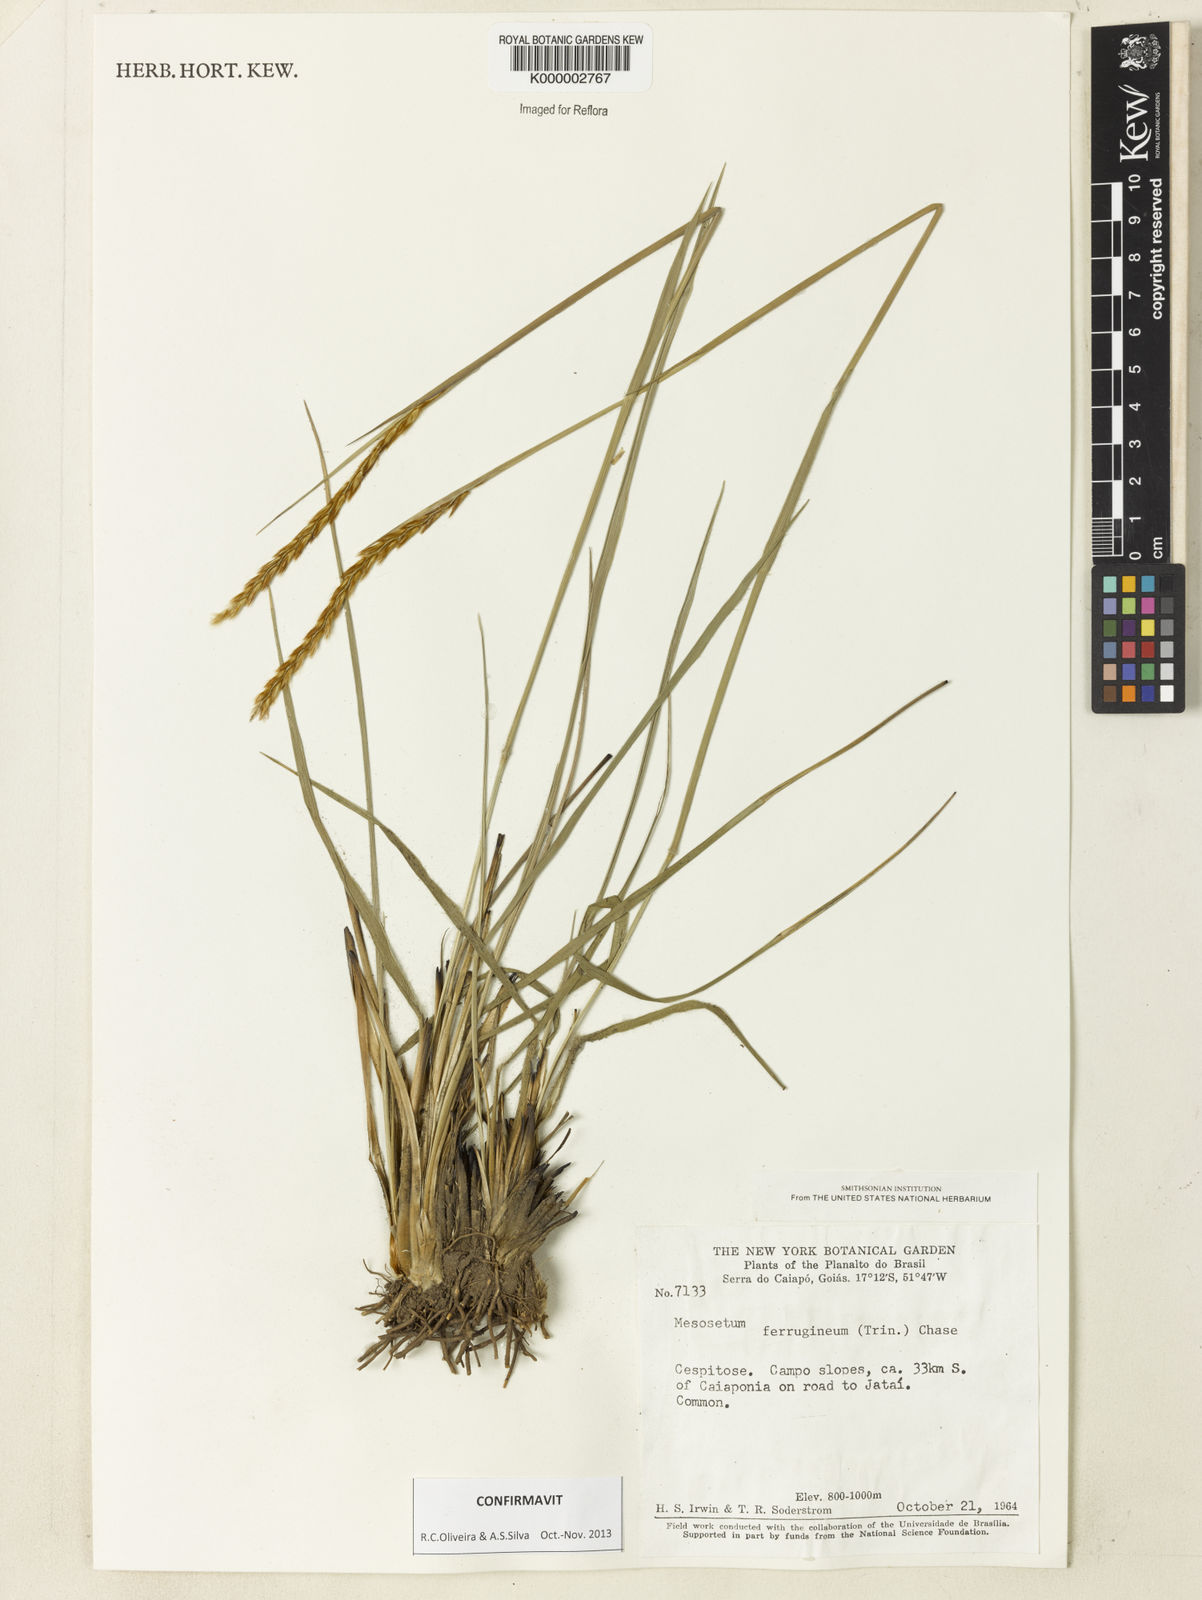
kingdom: Plantae
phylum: Tracheophyta
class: Liliopsida
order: Poales
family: Poaceae
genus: Mesosetum
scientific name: Mesosetum ferrugineum
